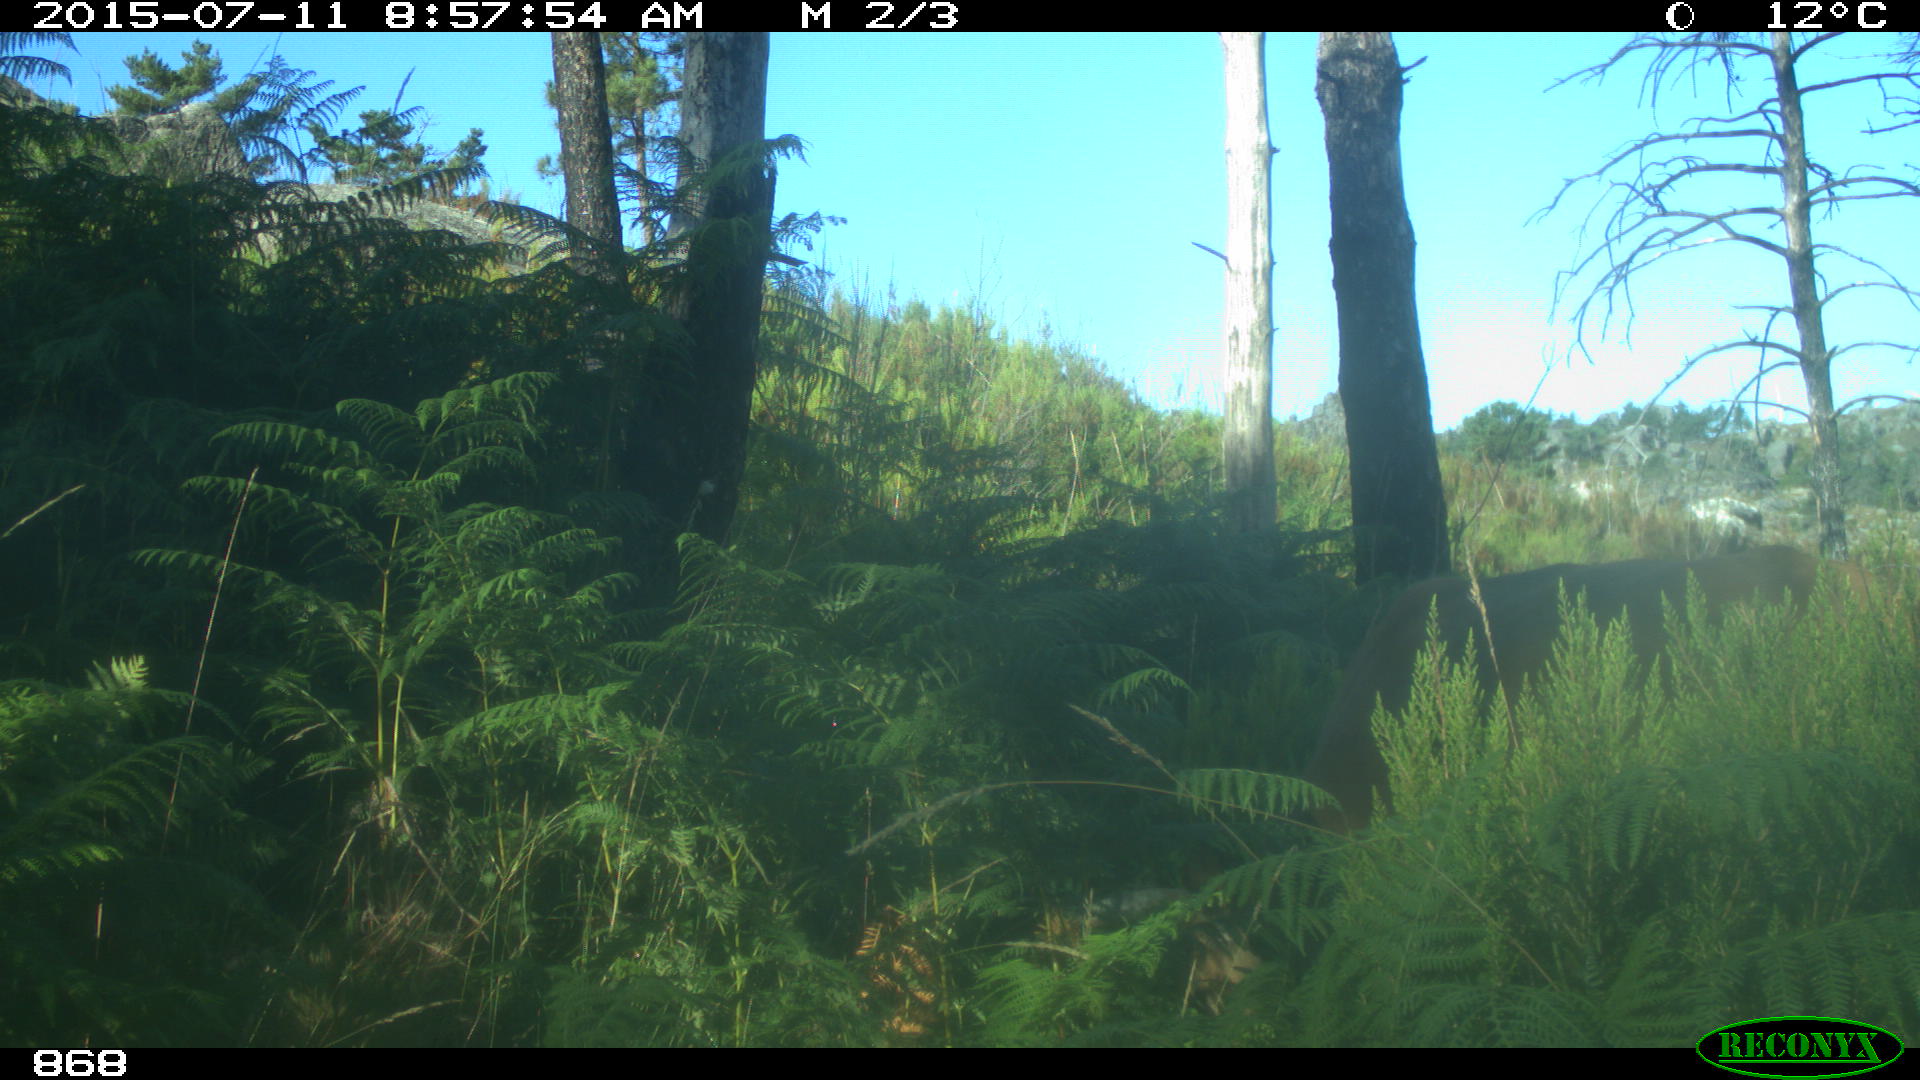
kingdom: Animalia
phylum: Chordata
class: Mammalia
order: Artiodactyla
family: Bovidae
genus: Bos
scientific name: Bos taurus
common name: Domesticated cattle
